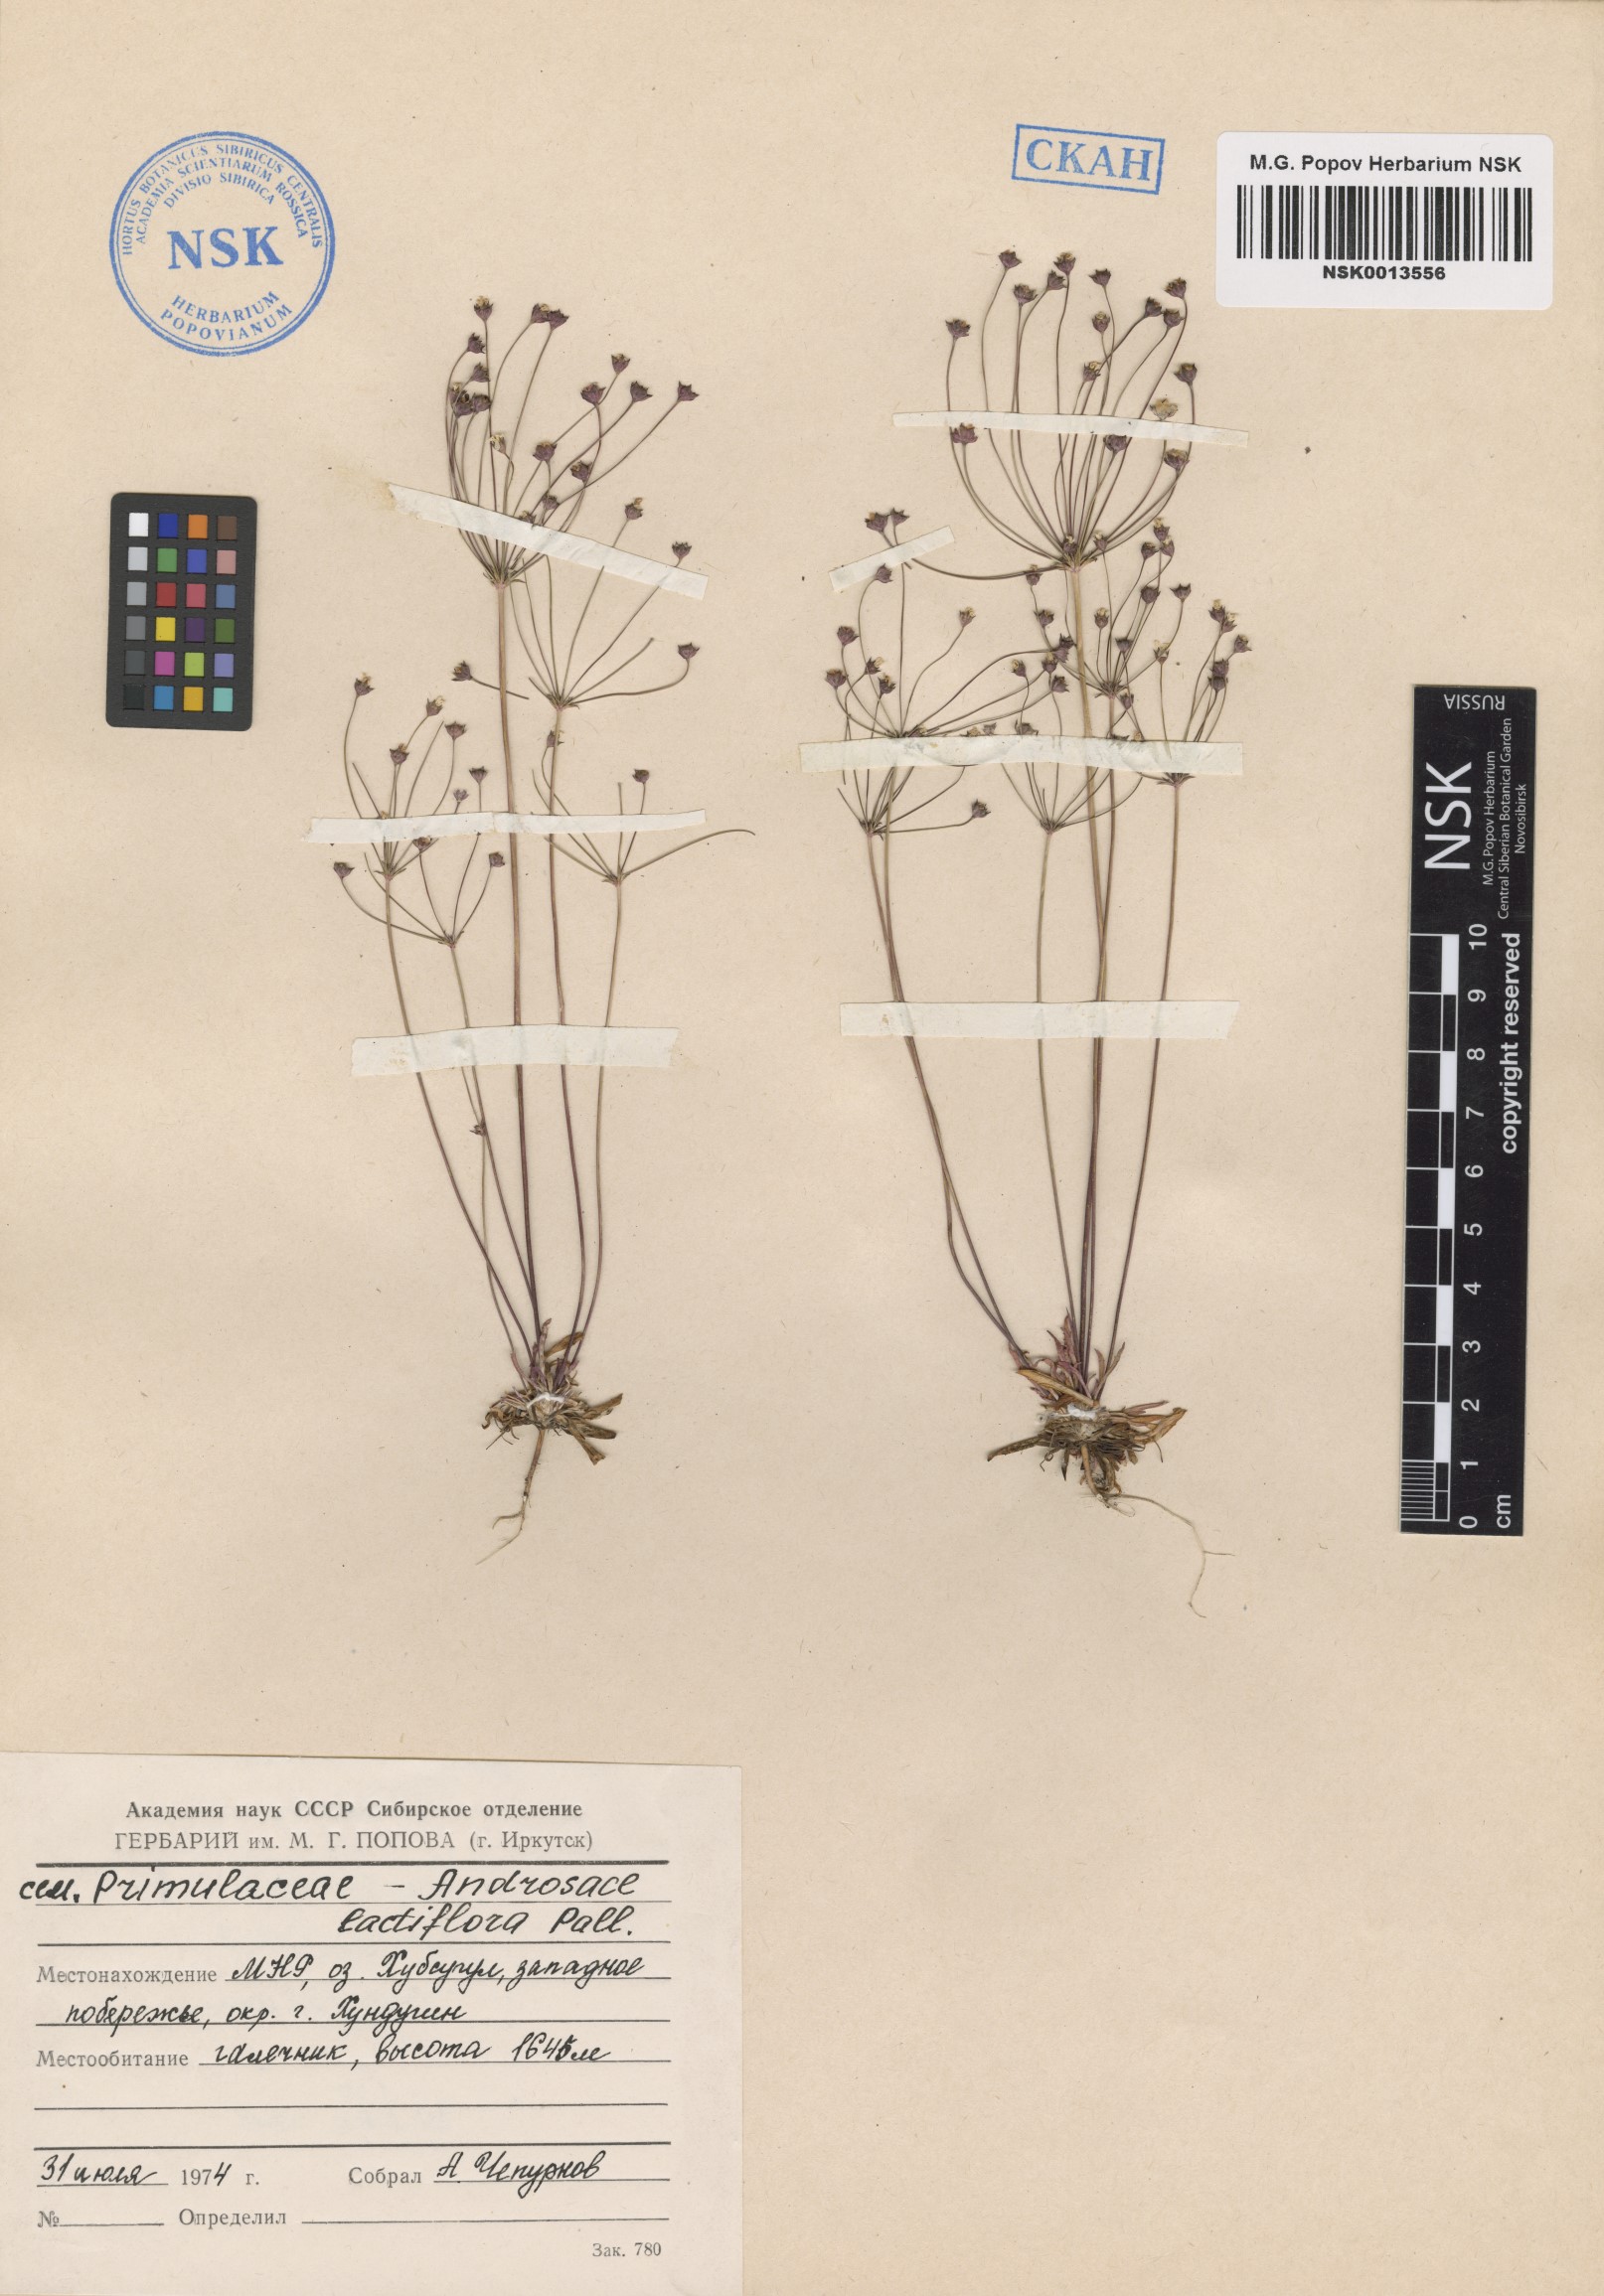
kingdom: Plantae
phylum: Tracheophyta
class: Magnoliopsida
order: Ericales
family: Primulaceae
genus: Androsace
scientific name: Androsace lactiflora
